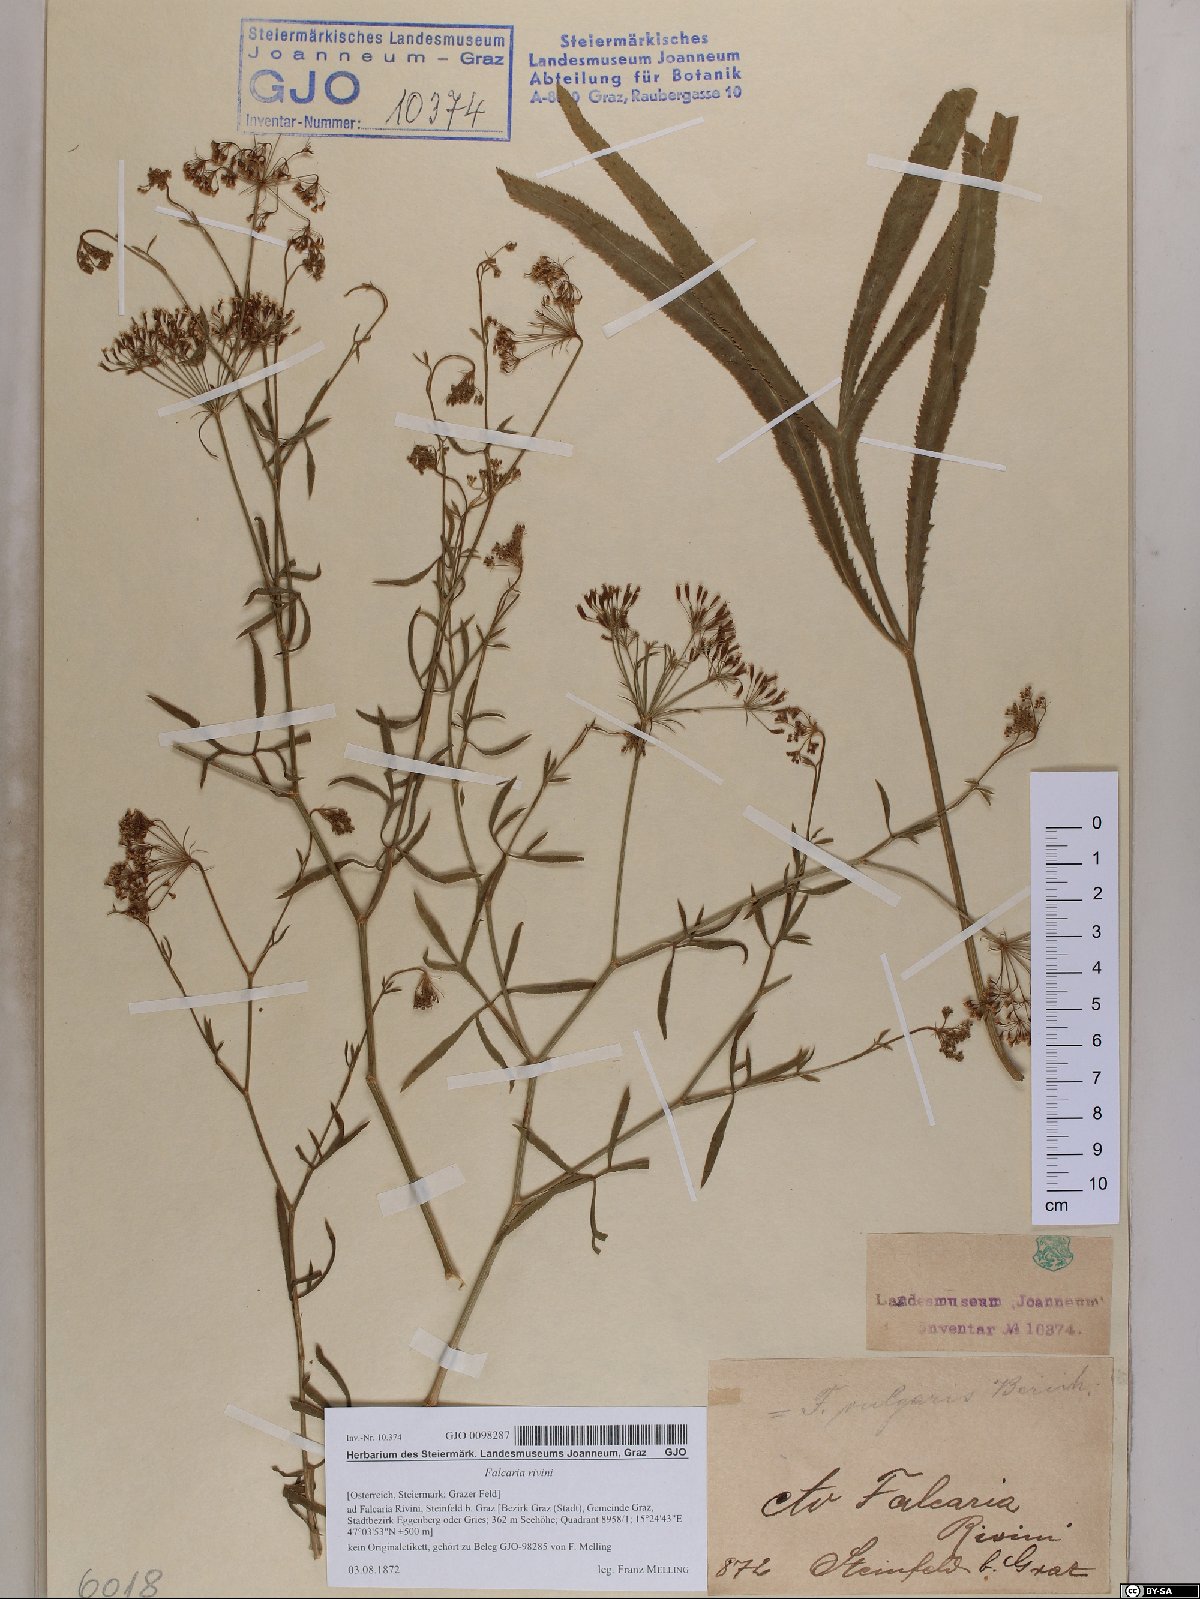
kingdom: Plantae
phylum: Tracheophyta
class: Magnoliopsida
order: Apiales
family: Apiaceae
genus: Falcaria
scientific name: Falcaria vulgaris
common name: Longleaf
